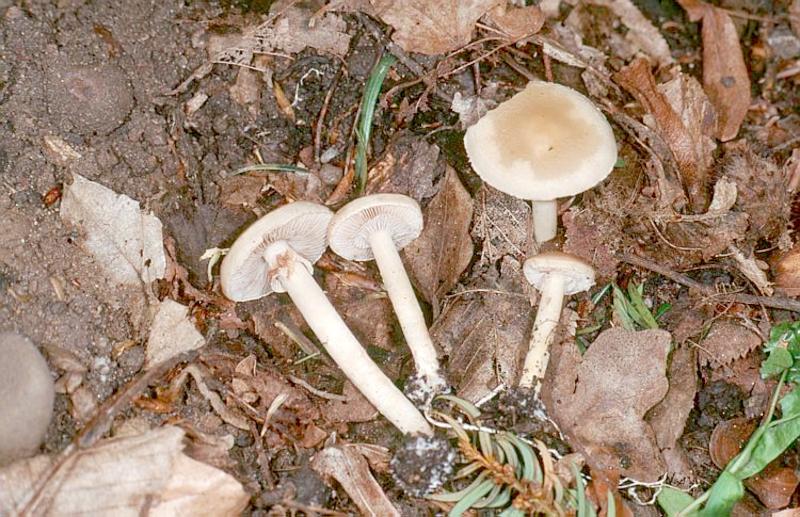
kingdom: Fungi
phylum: Basidiomycota
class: Agaricomycetes
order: Agaricales
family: Strophariaceae
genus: Agrocybe
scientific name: Agrocybe praecox
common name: Spring fieldcap
